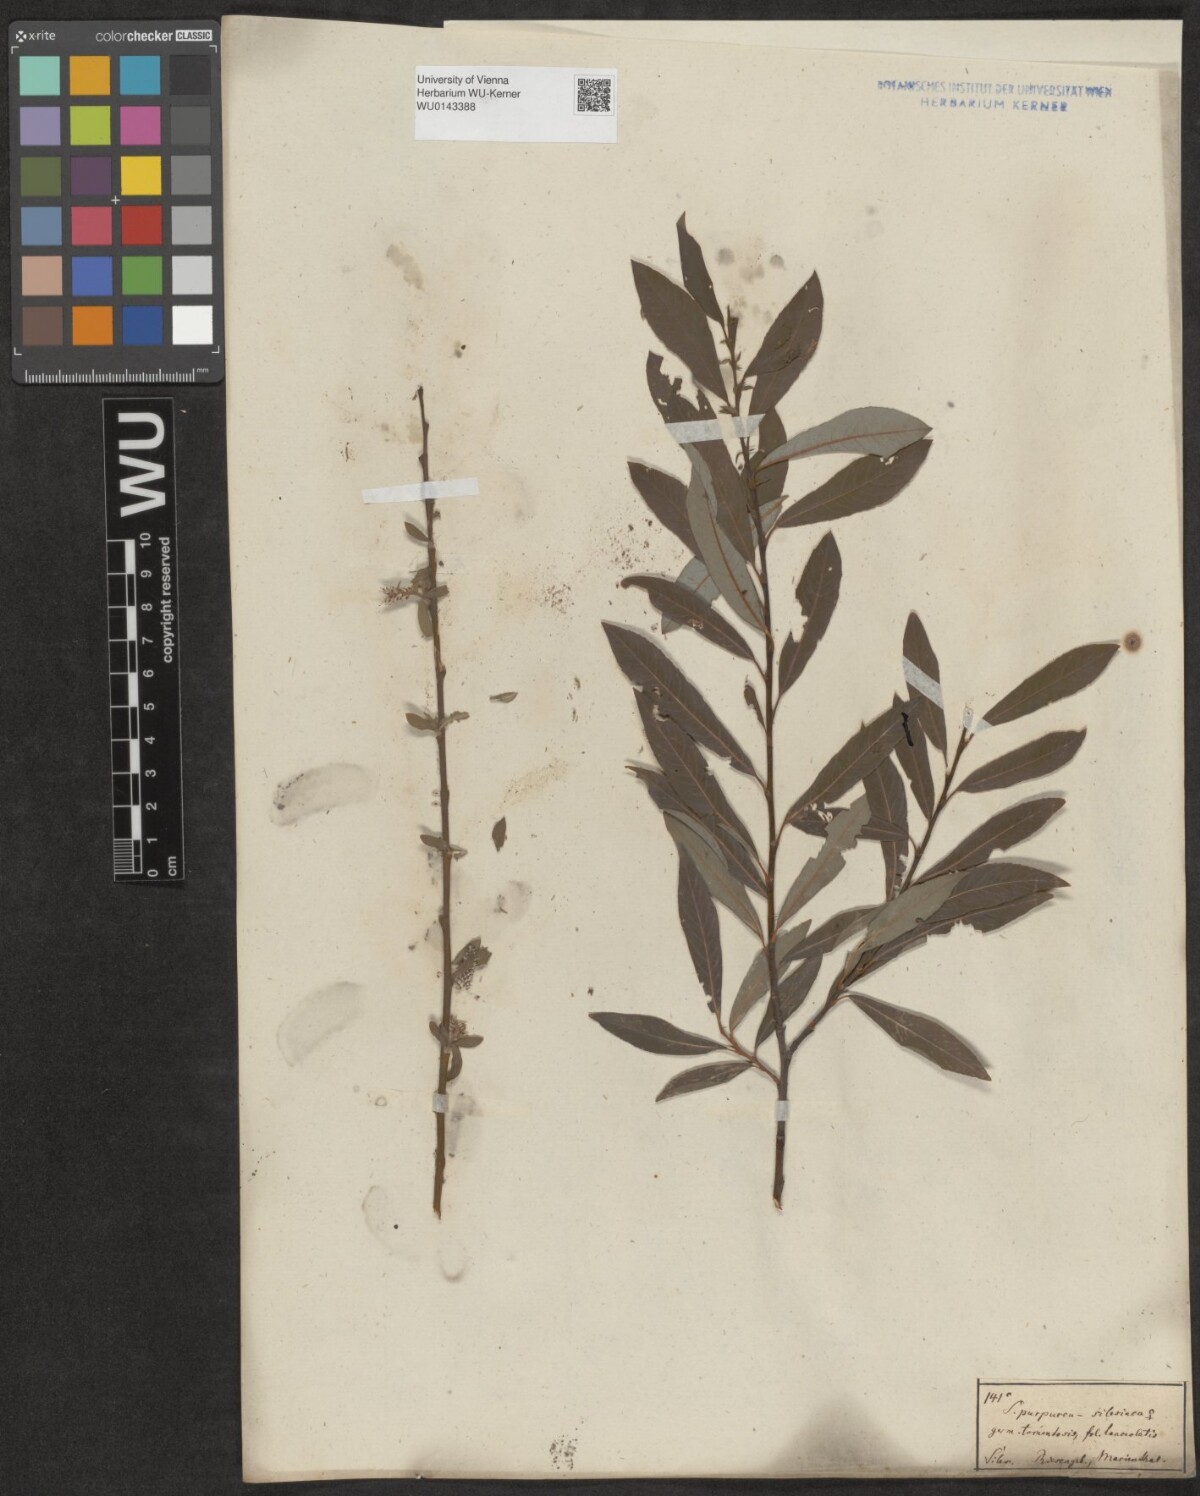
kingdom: Plantae
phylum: Tracheophyta
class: Magnoliopsida
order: Malpighiales
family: Salicaceae
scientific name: Salicaceae
